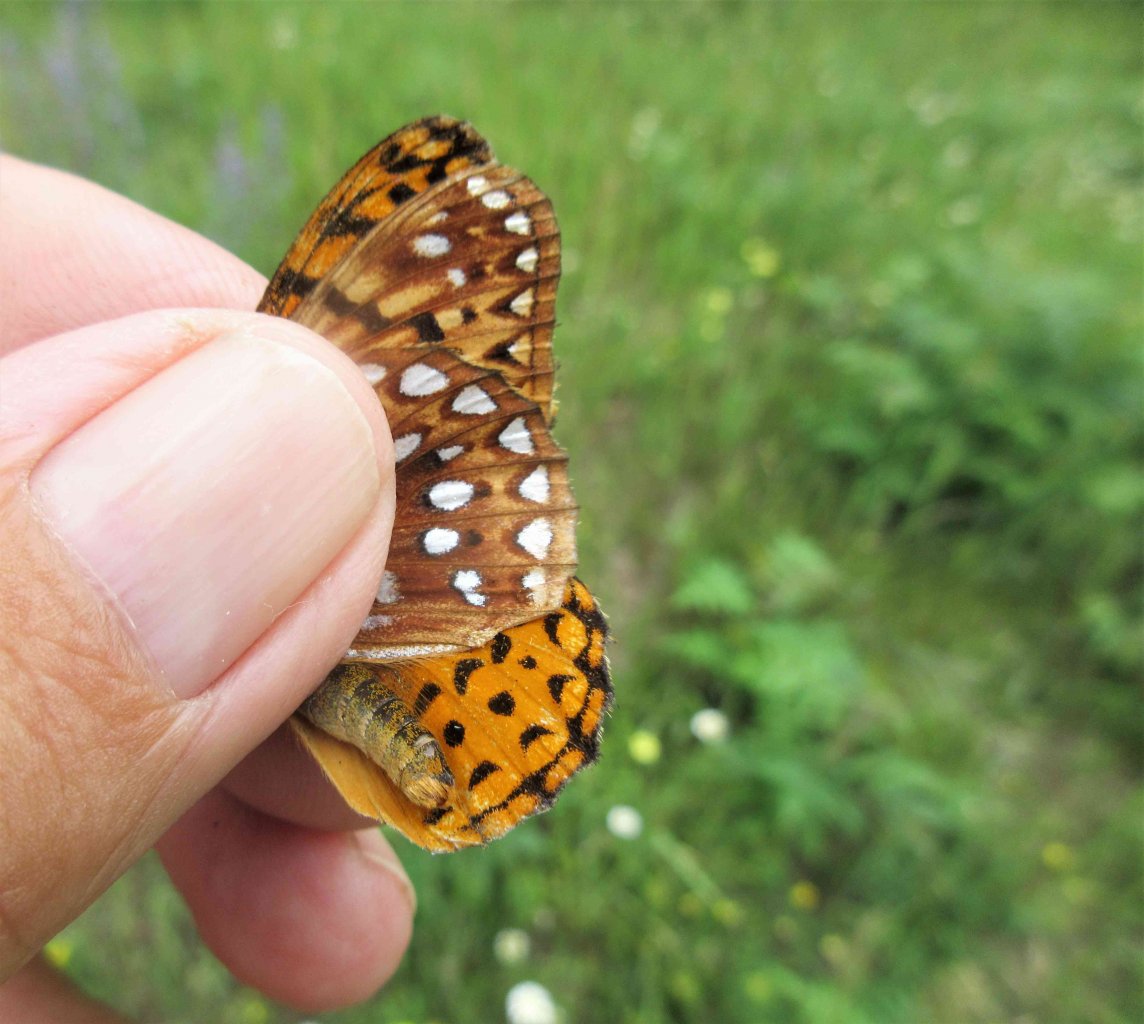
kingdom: Animalia
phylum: Arthropoda
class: Insecta
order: Lepidoptera
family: Nymphalidae
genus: Speyeria
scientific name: Speyeria aphrodite
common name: Aphrodite Fritillary
